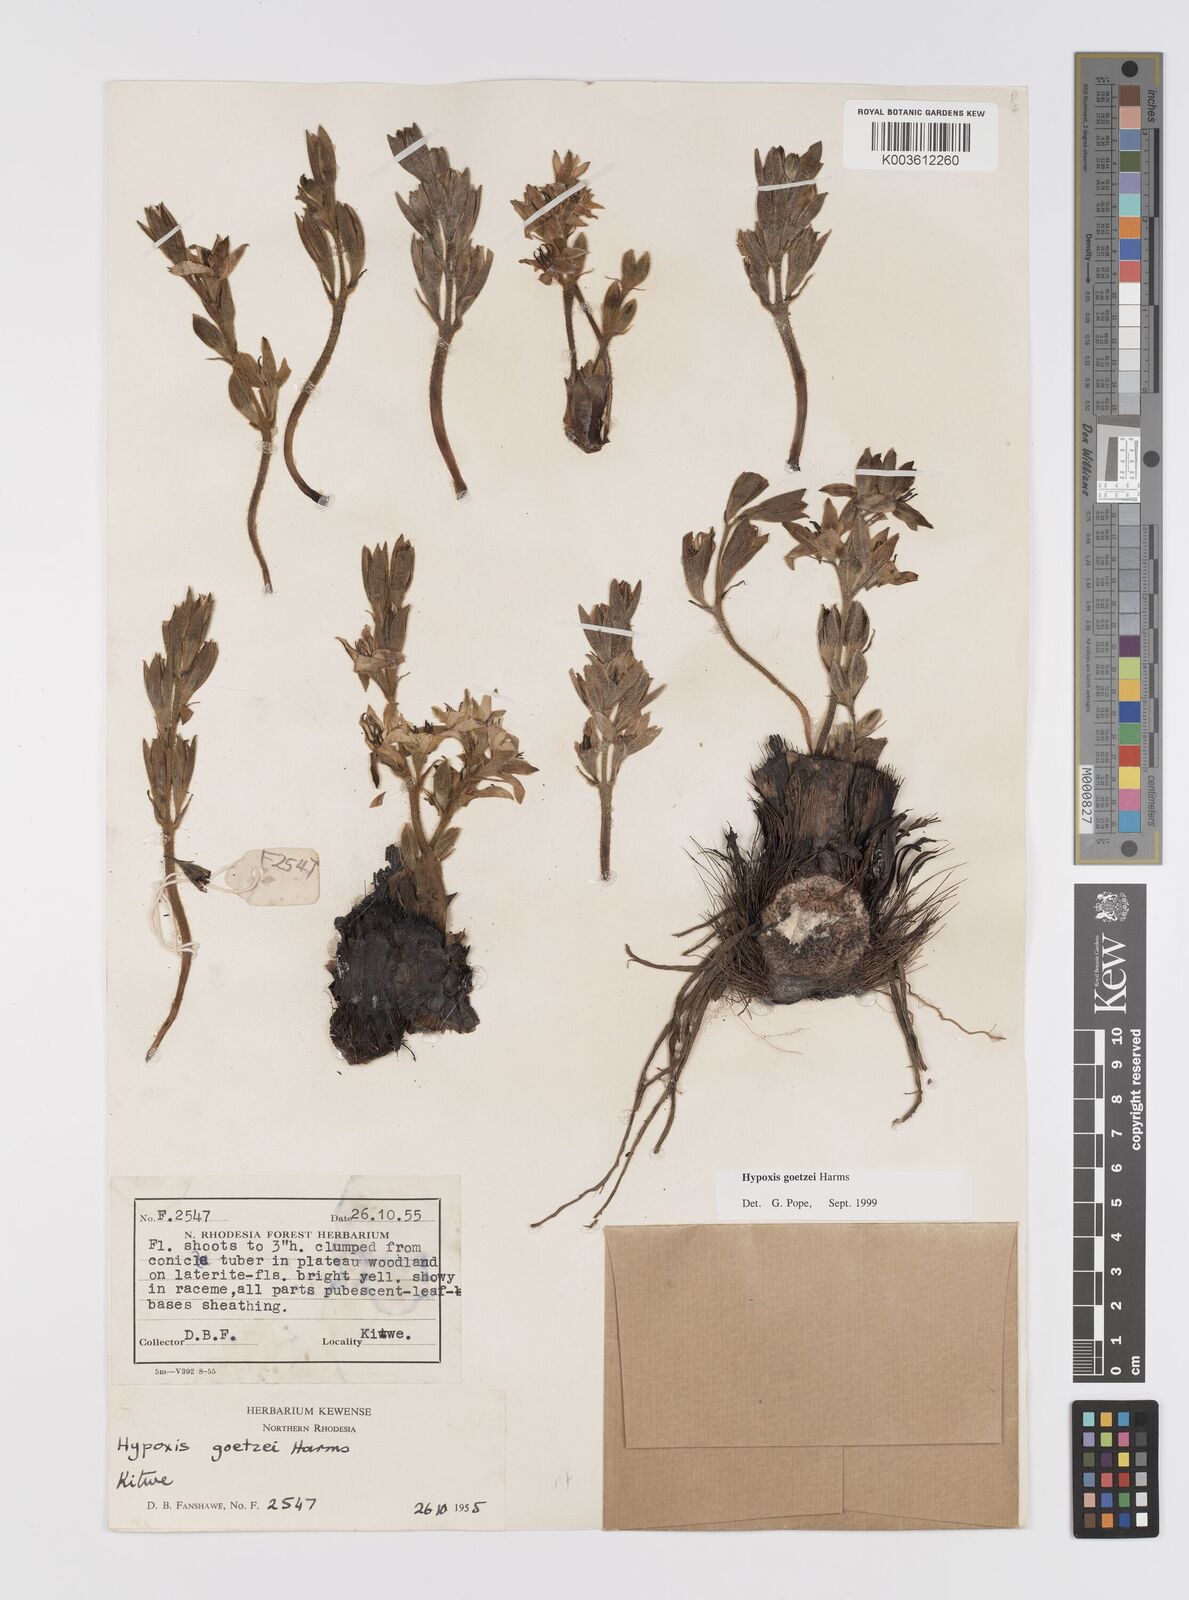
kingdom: Plantae
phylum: Tracheophyta
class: Liliopsida
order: Asparagales
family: Hypoxidaceae
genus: Hypoxis
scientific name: Hypoxis goetzei
